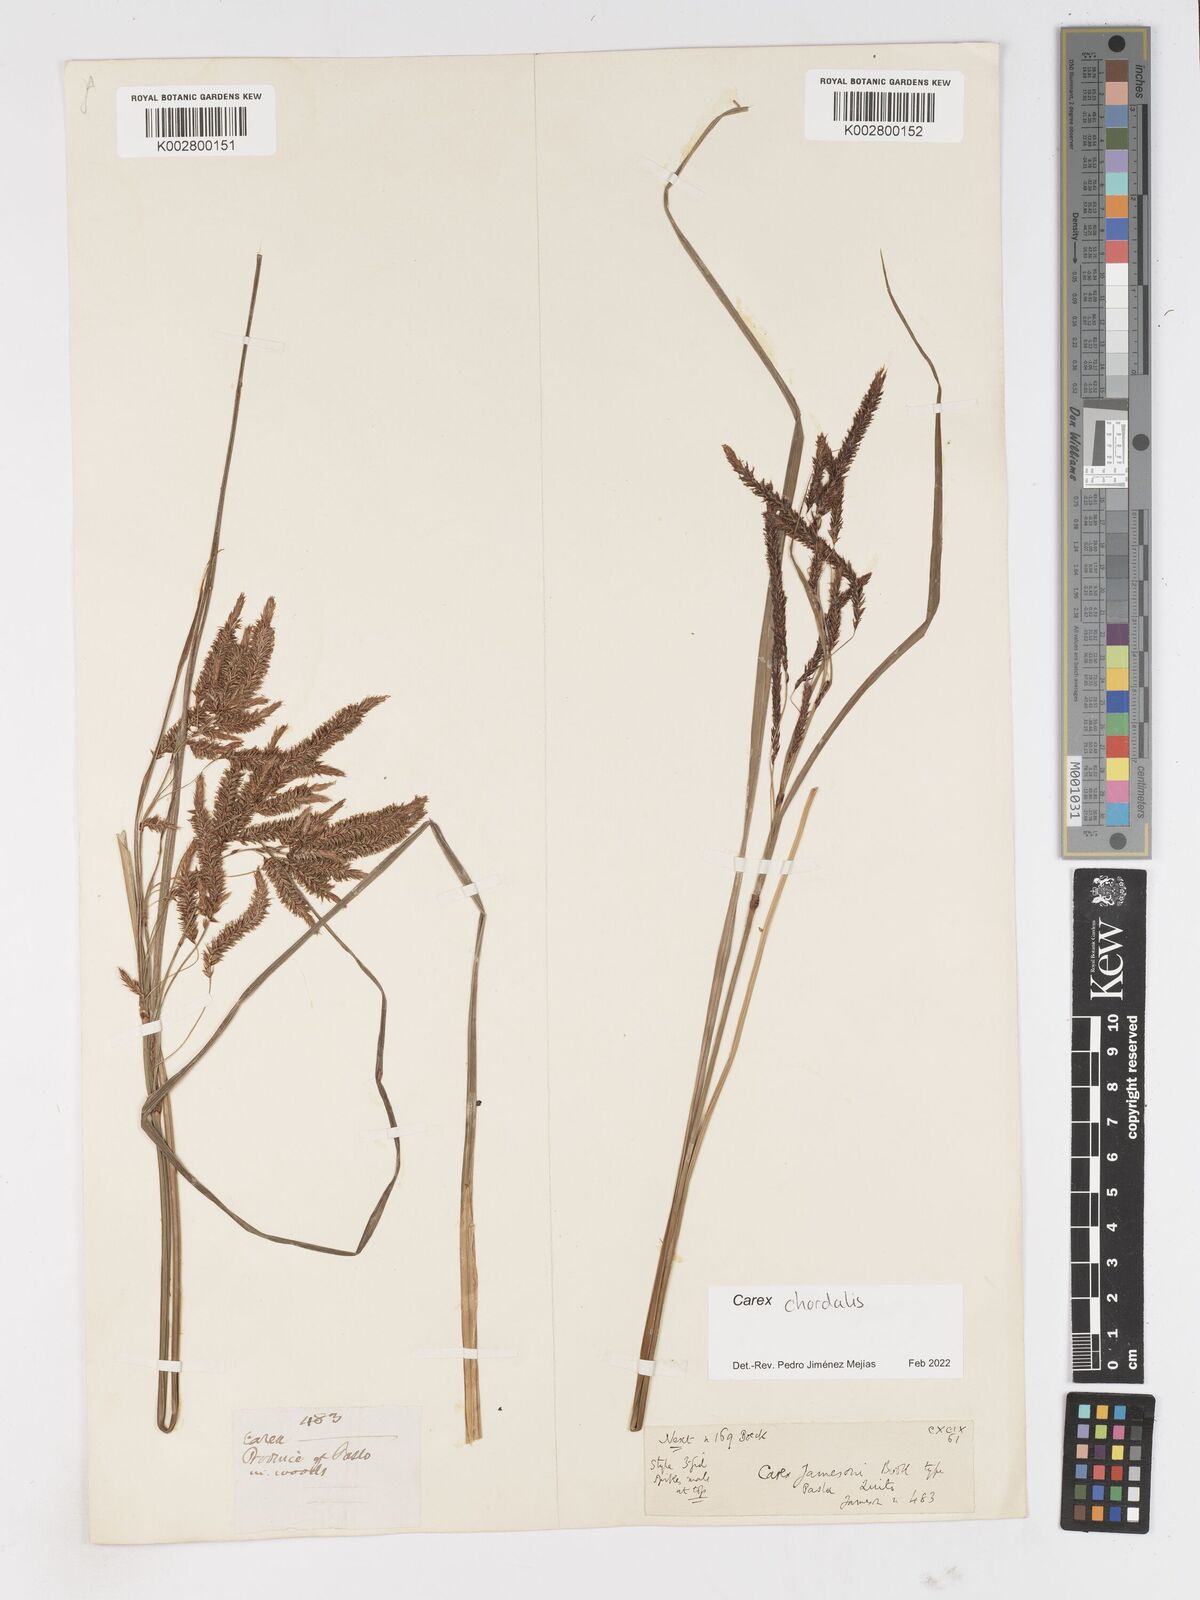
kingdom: Plantae
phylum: Tracheophyta
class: Liliopsida
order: Poales
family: Cyperaceae
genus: Carex
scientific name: Carex jamesonii
